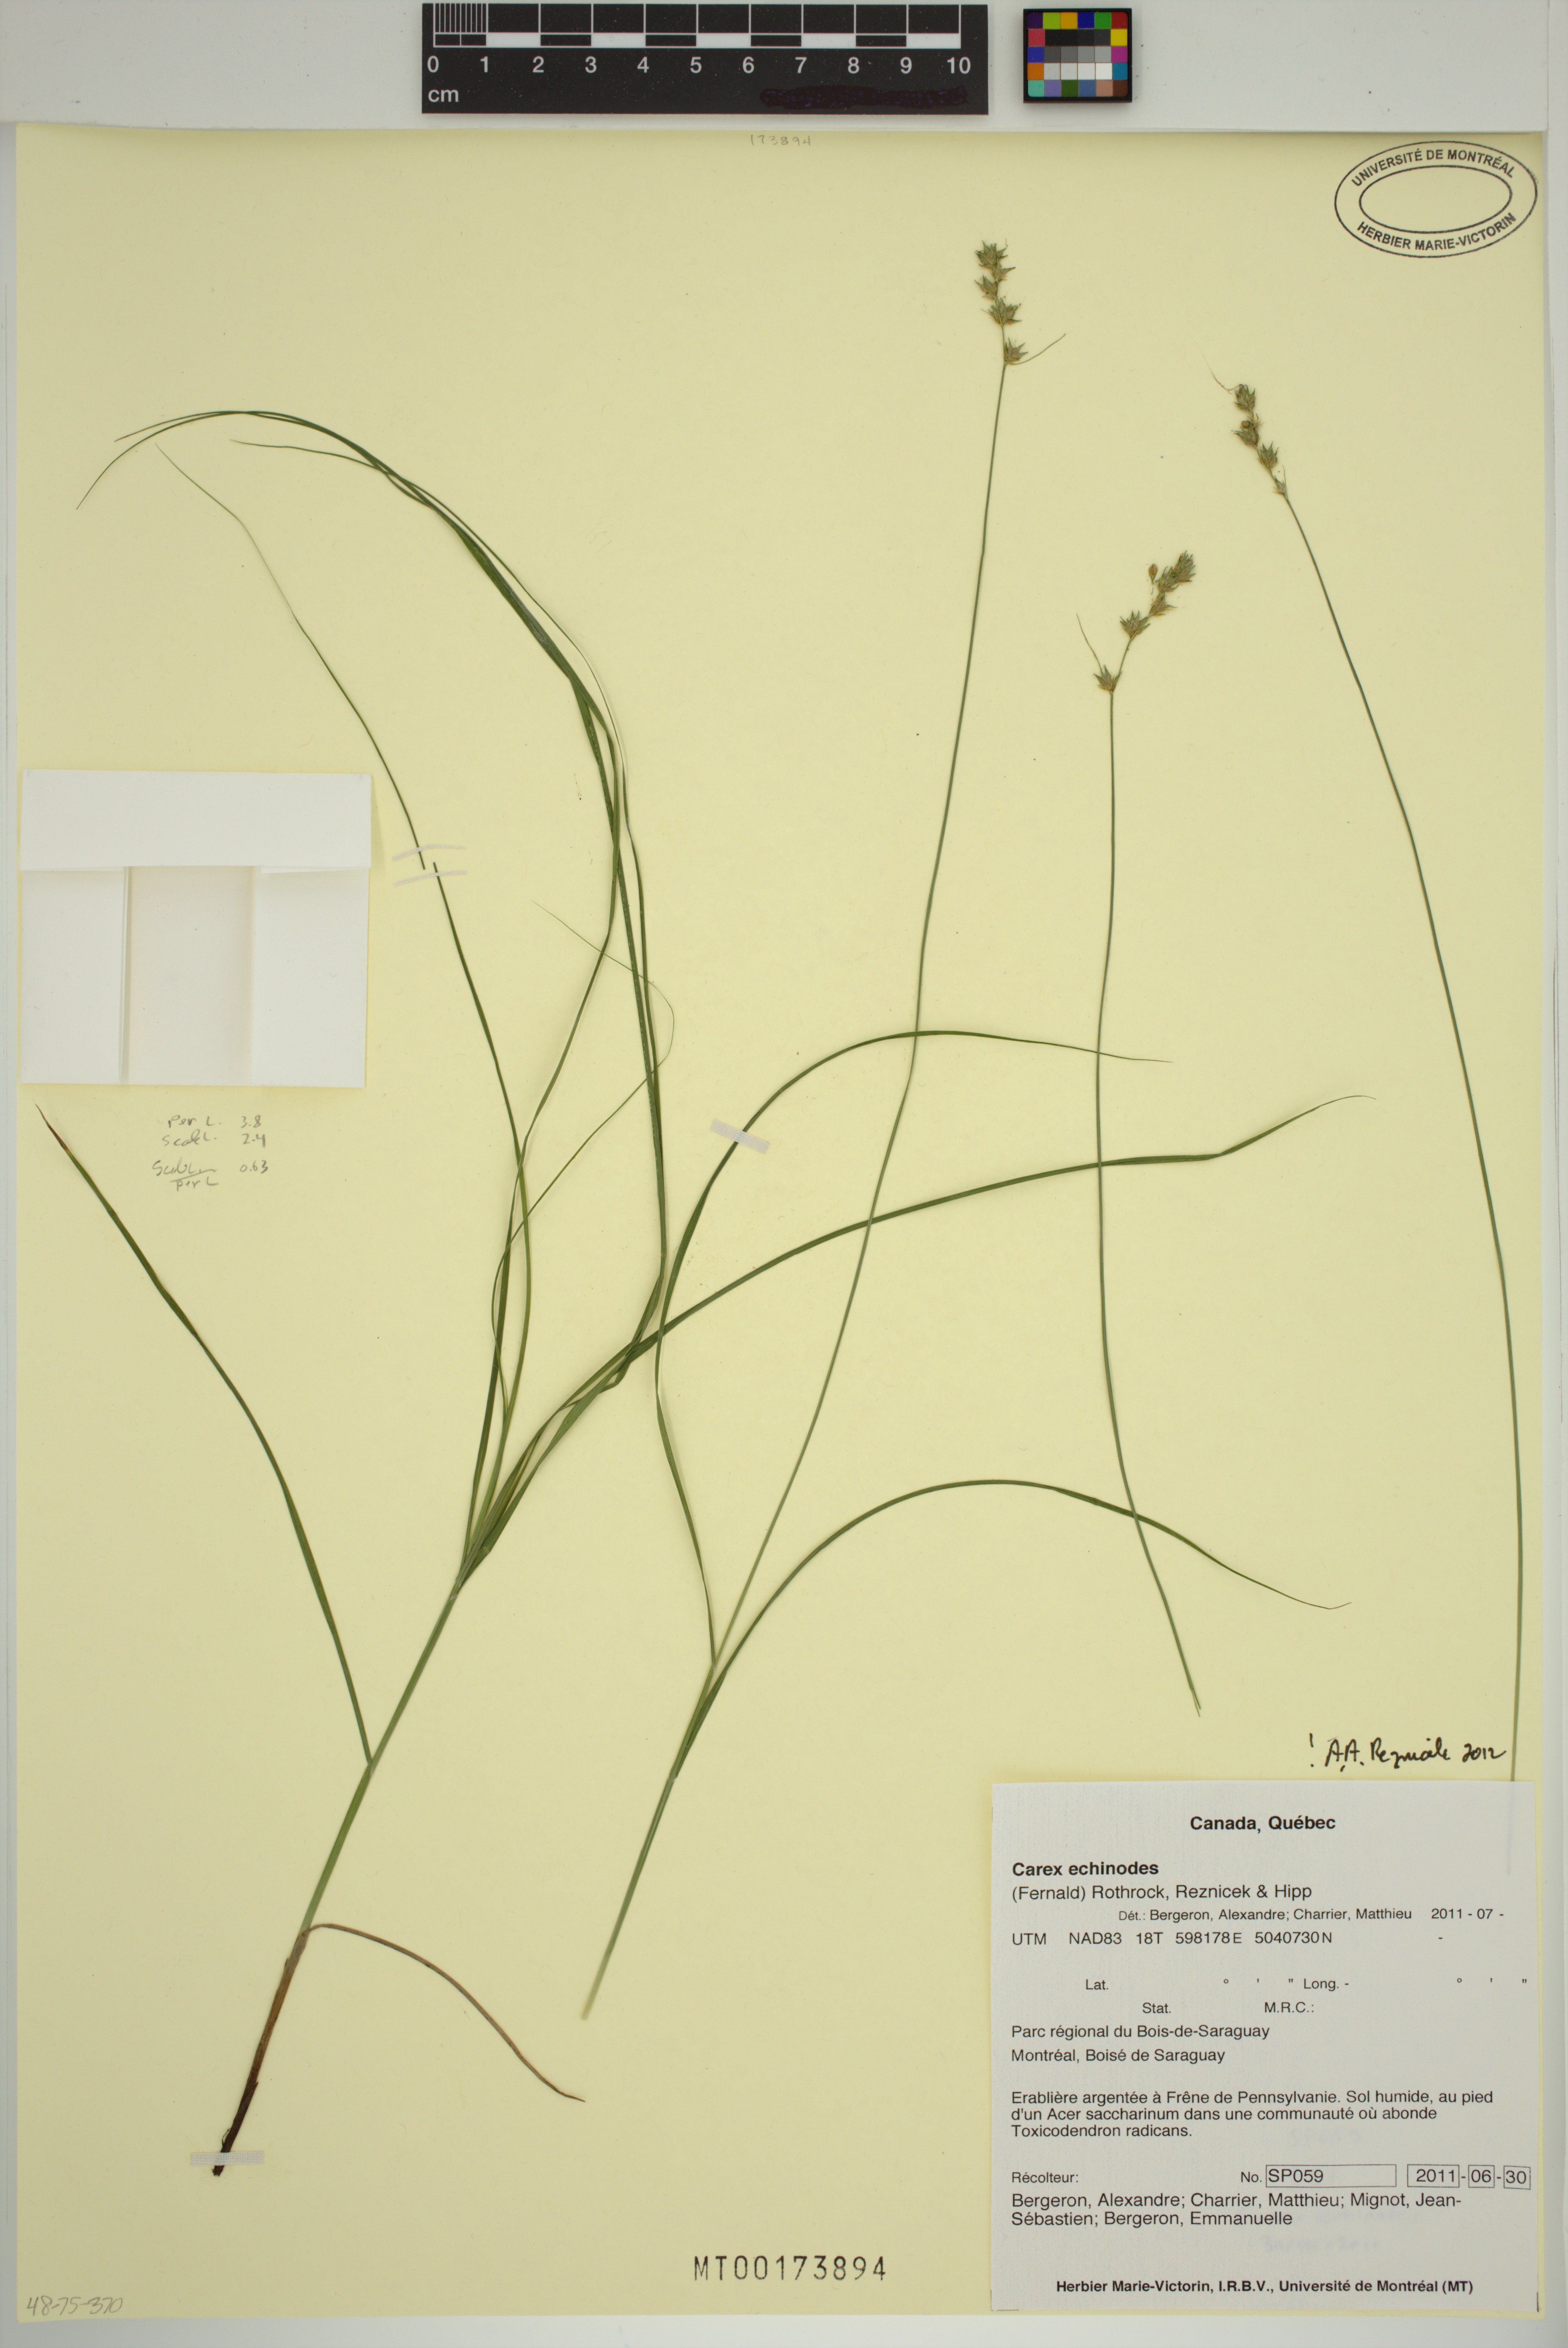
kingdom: Plantae
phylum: Tracheophyta
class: Liliopsida
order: Poales
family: Cyperaceae
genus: Carex
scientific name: Carex echinodes
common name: Marsh straw sedge
